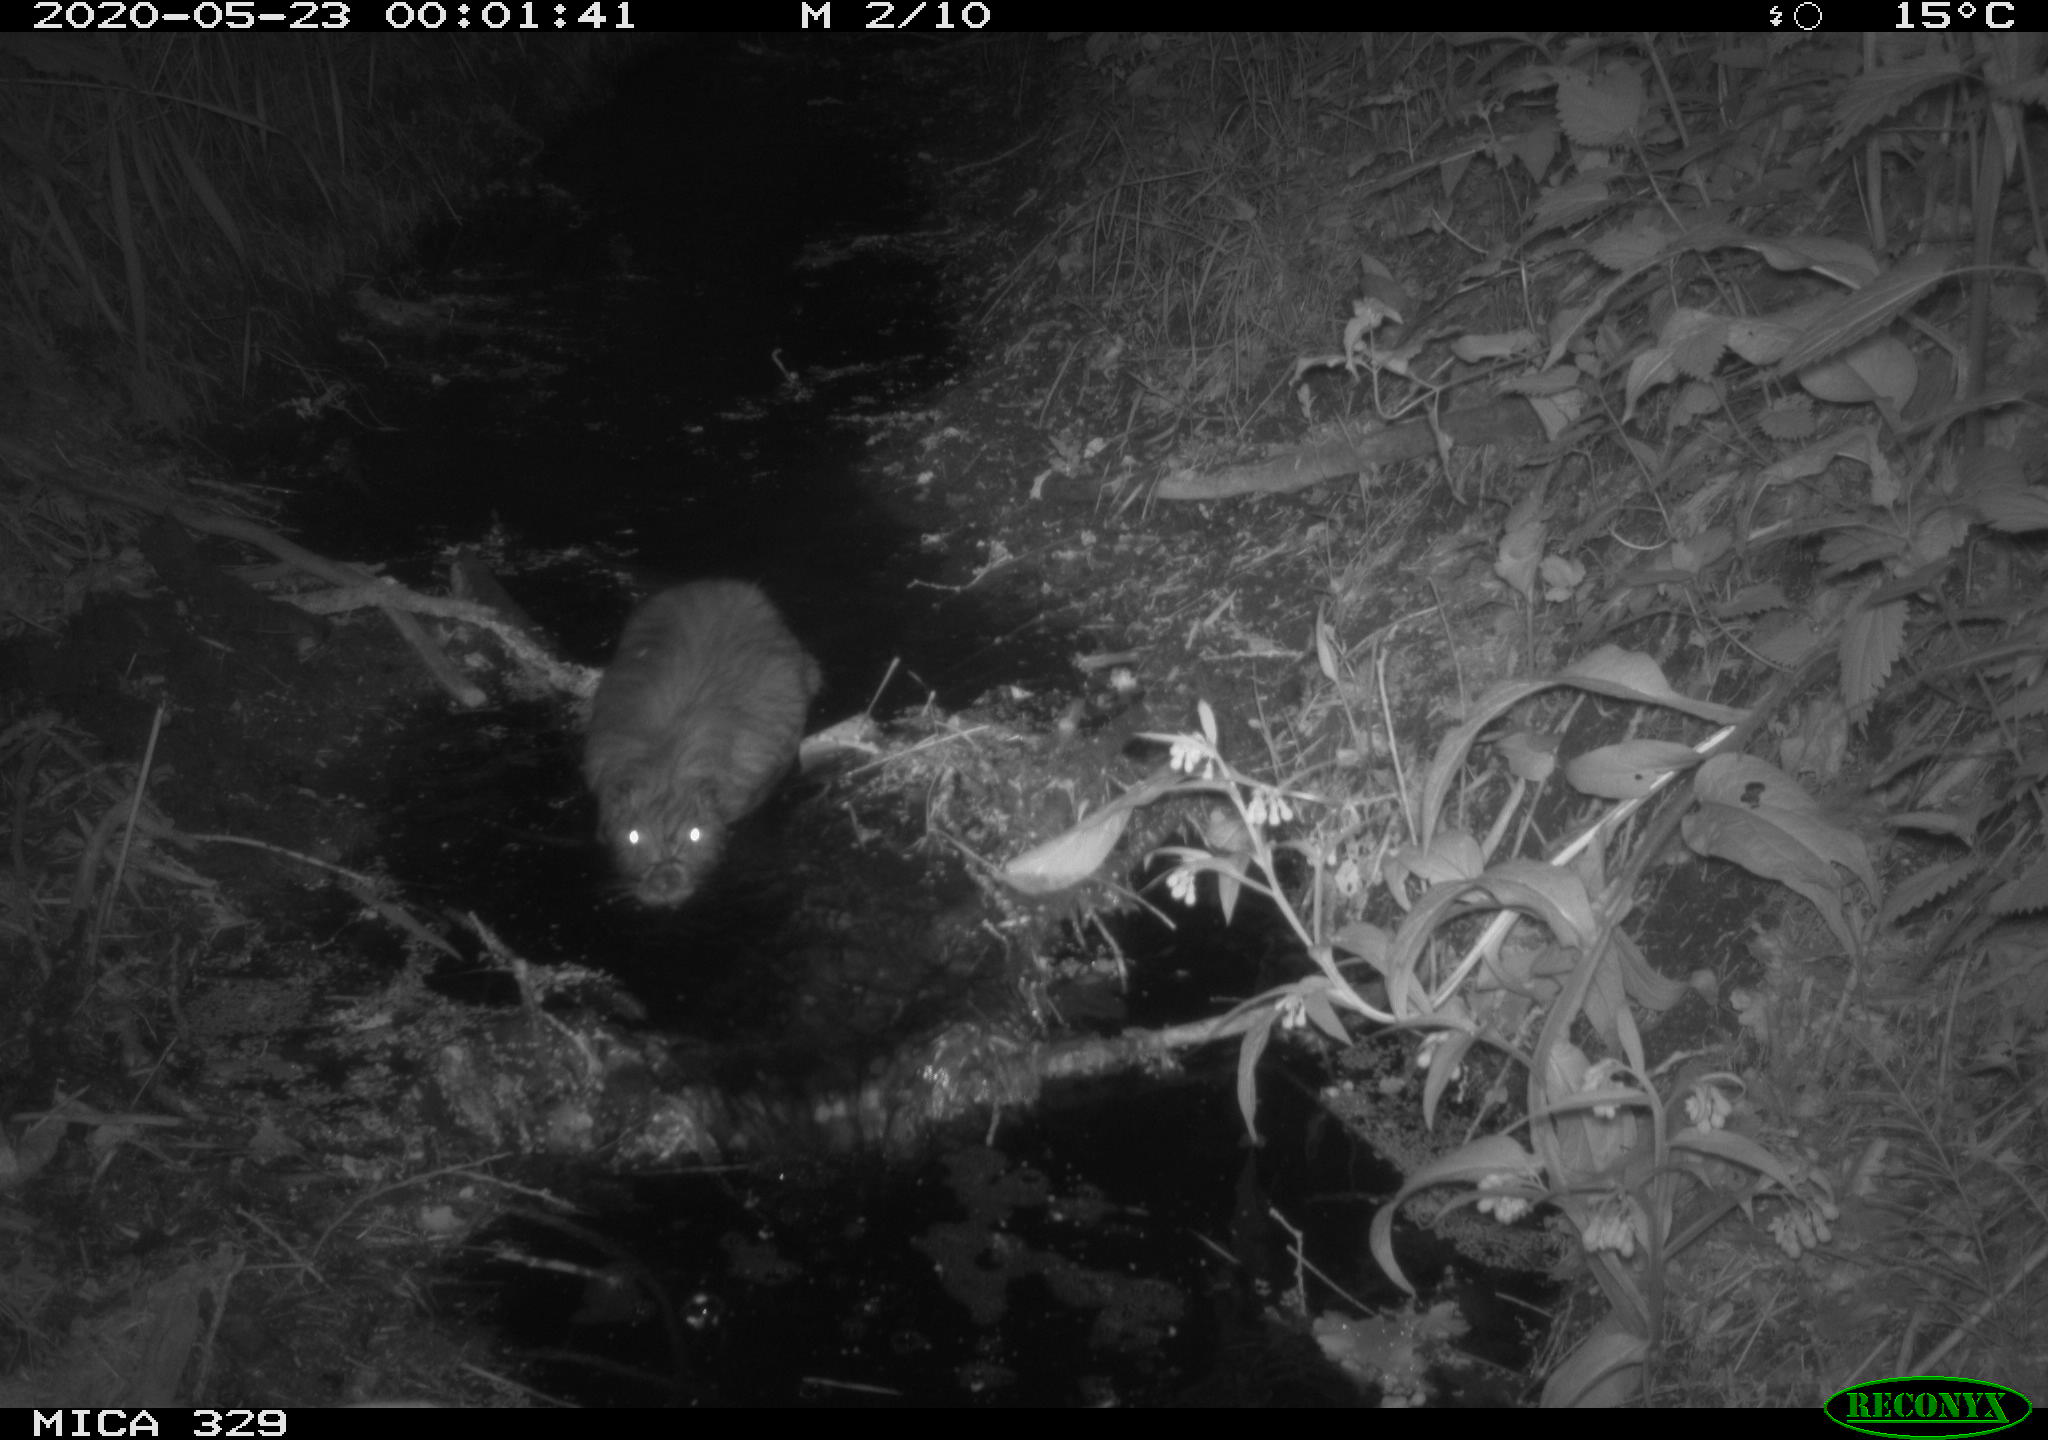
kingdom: Animalia
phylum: Chordata
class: Mammalia
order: Rodentia
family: Myocastoridae
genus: Myocastor
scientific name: Myocastor coypus
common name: Coypu
